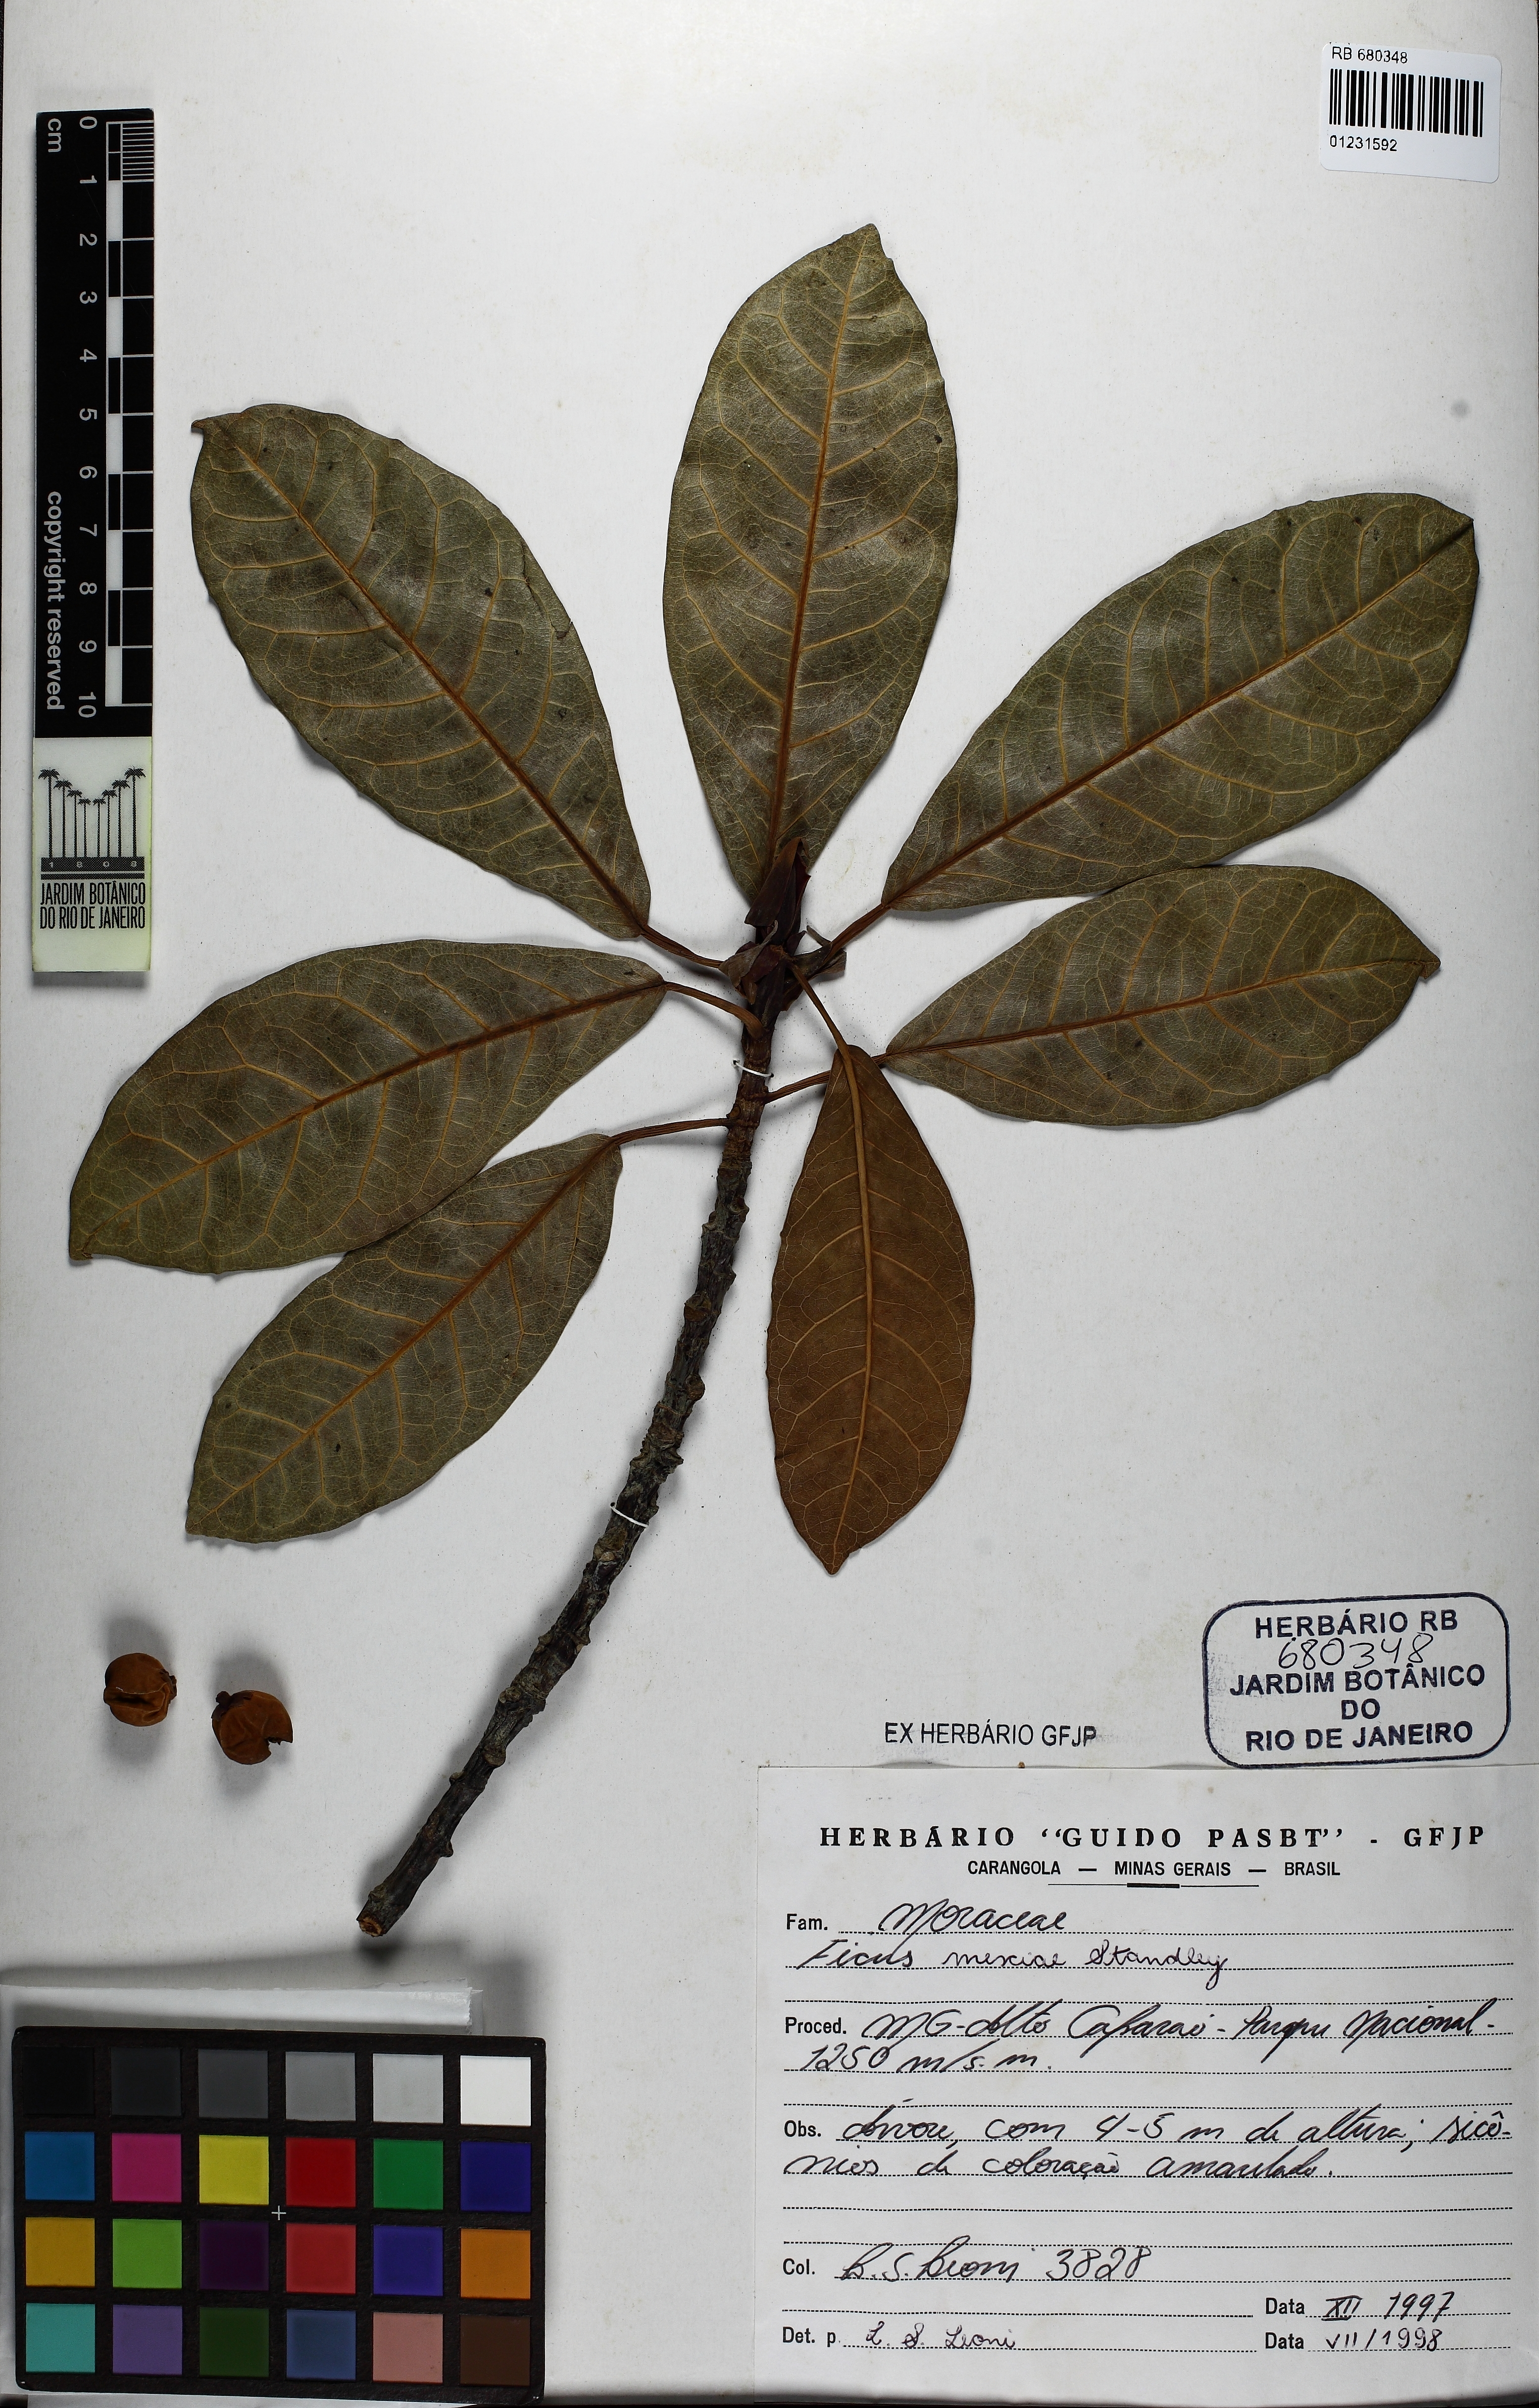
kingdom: Plantae
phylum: Tracheophyta
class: Magnoliopsida
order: Rosales
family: Moraceae
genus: Ficus
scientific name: Ficus mexiae
